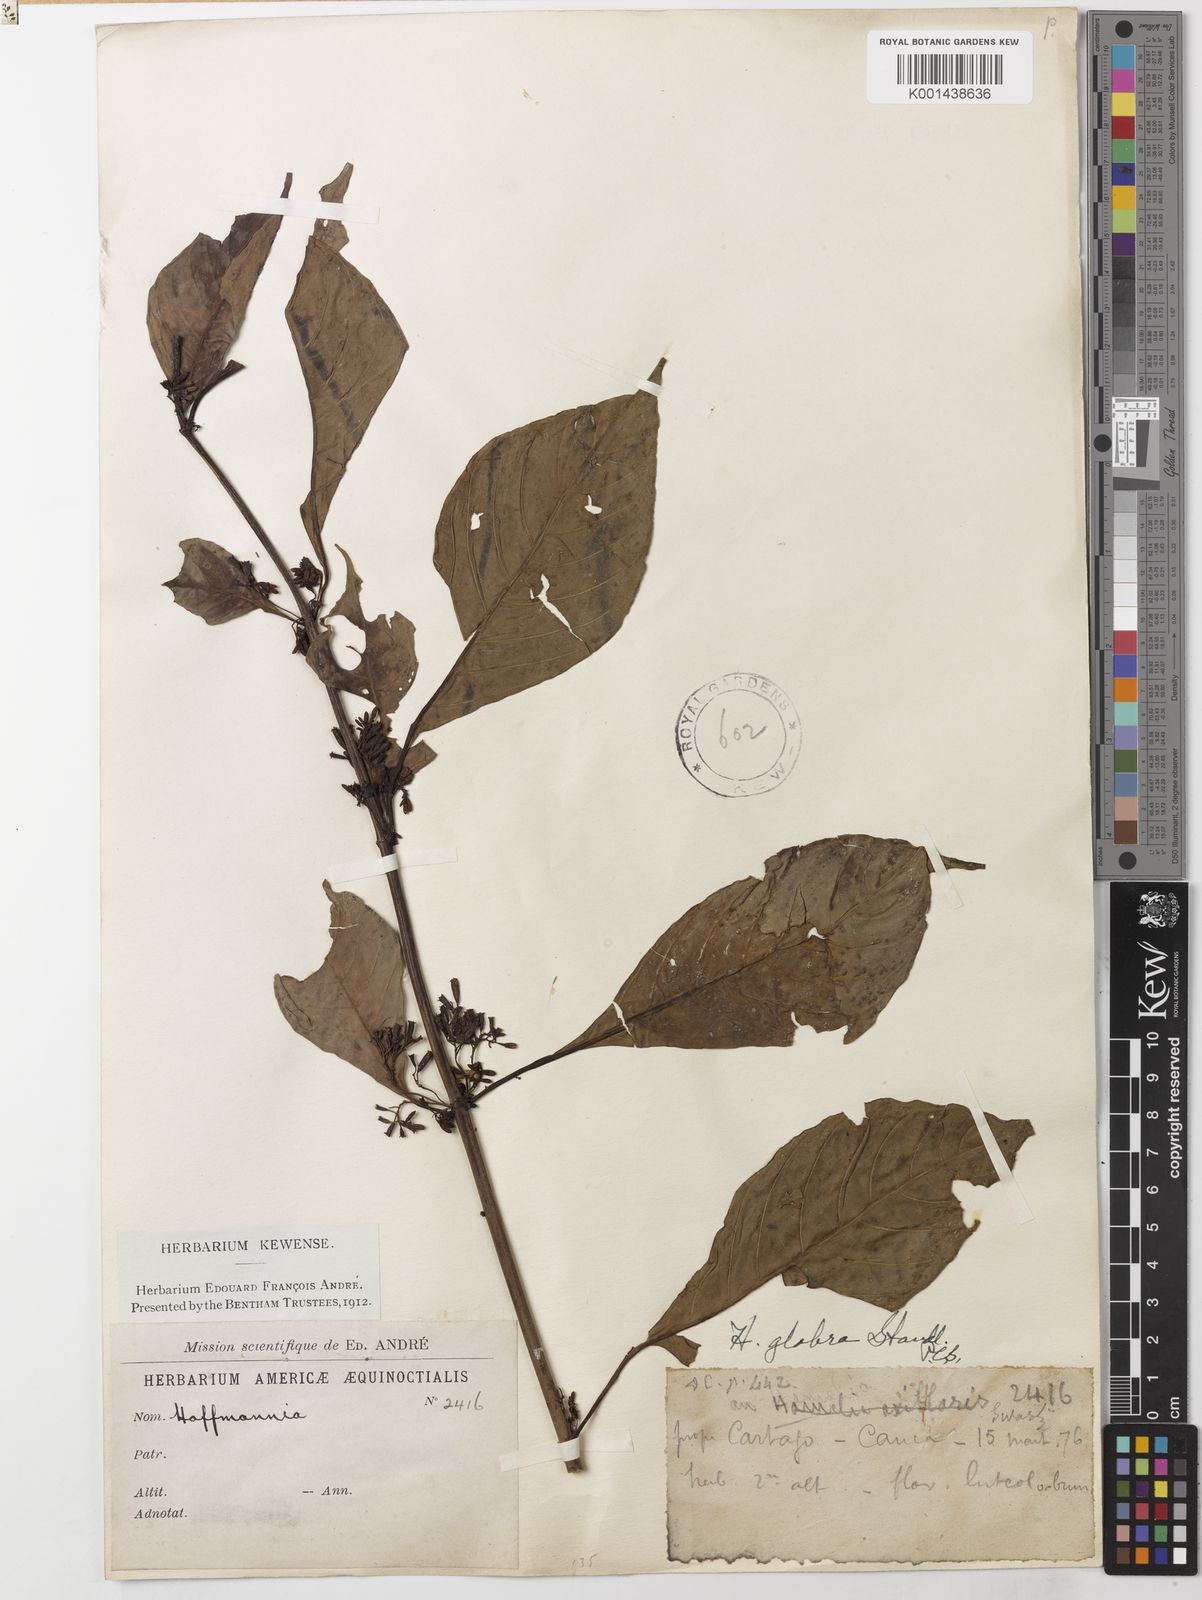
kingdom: Plantae
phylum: Tracheophyta
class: Magnoliopsida
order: Gentianales
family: Rubiaceae
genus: Hoffmannia
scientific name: Hoffmannia glabra
